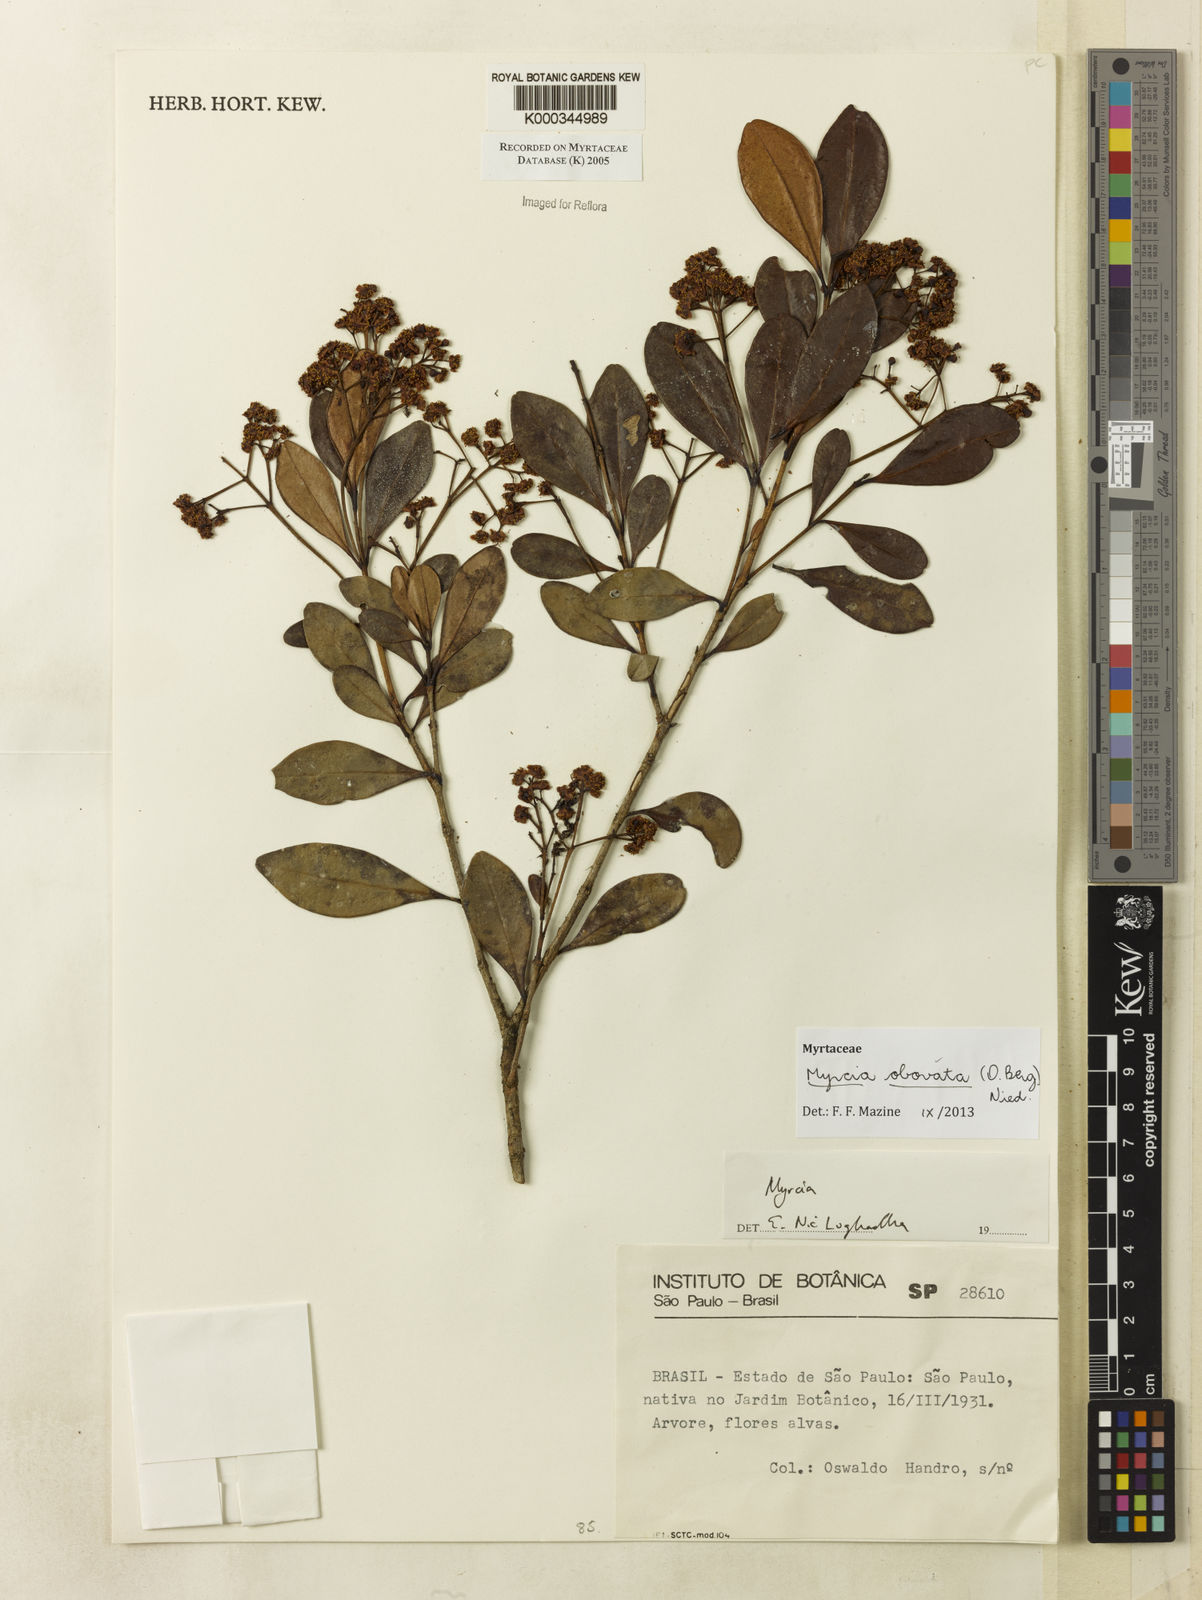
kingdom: Plantae
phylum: Tracheophyta
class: Magnoliopsida
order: Myrtales
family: Myrtaceae
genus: Myrcia
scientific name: Myrcia
